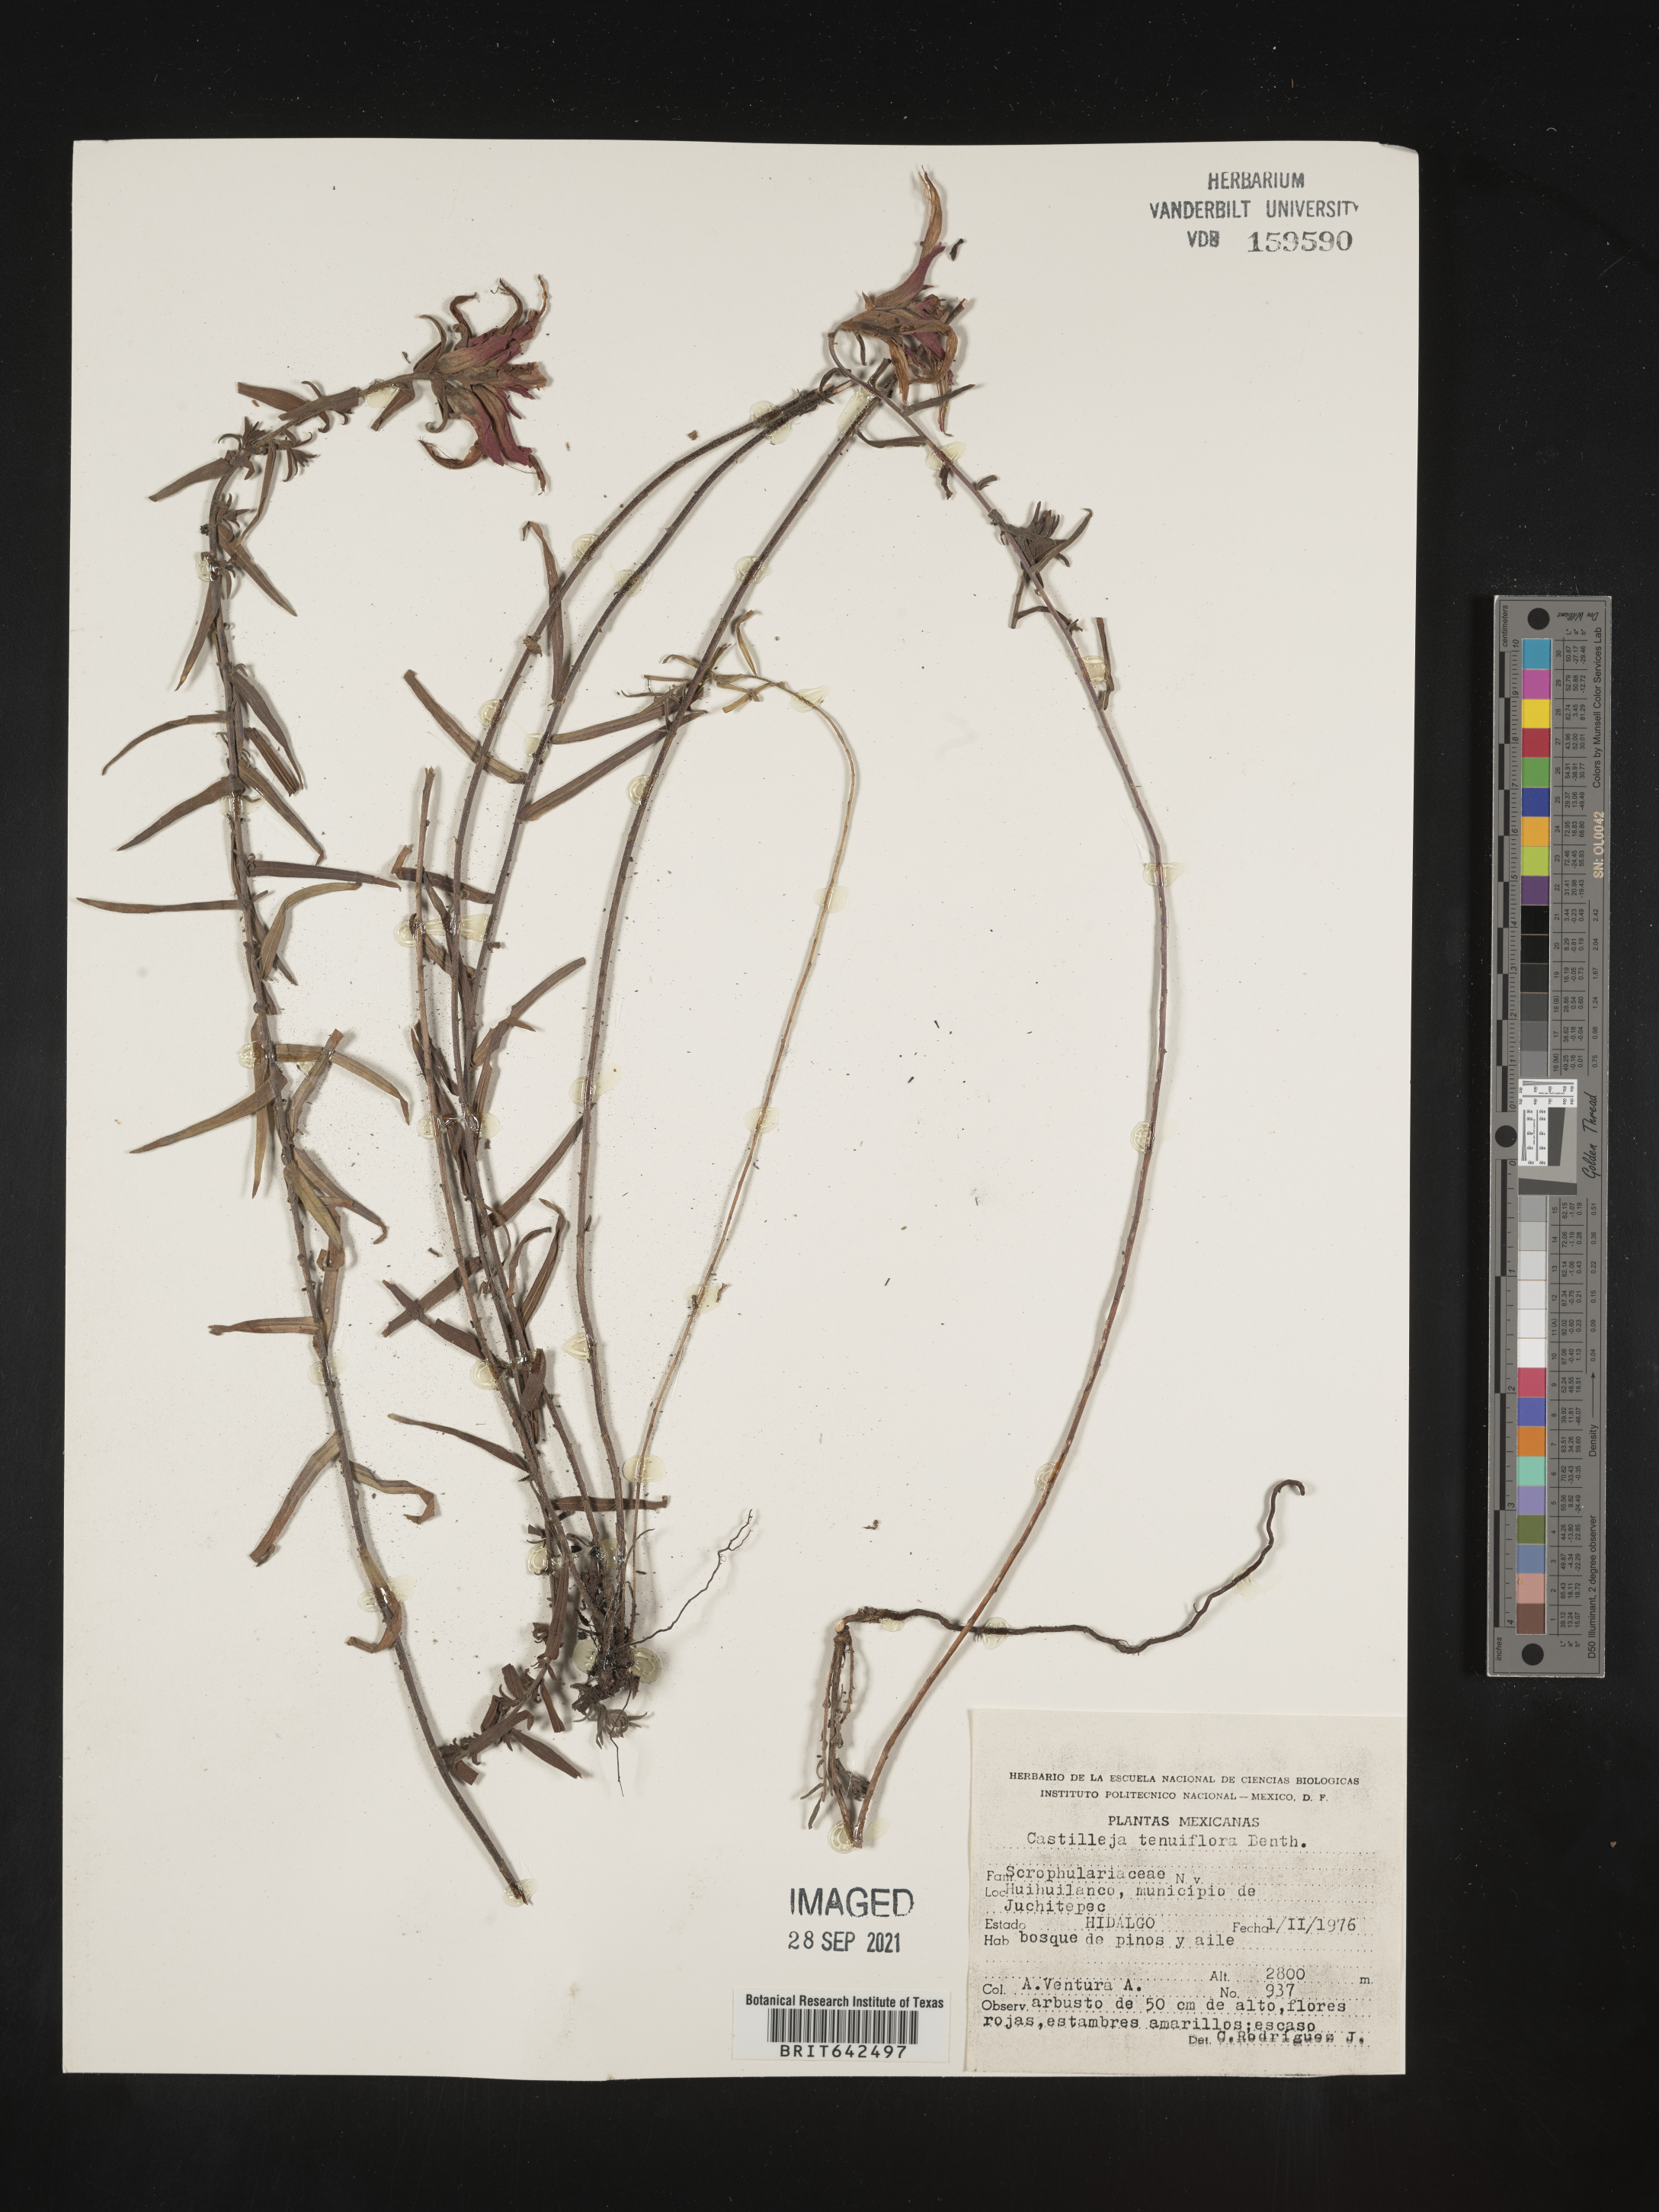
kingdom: Plantae
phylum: Tracheophyta
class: Magnoliopsida
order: Lamiales
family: Orobanchaceae
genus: Castilleja
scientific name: Castilleja
